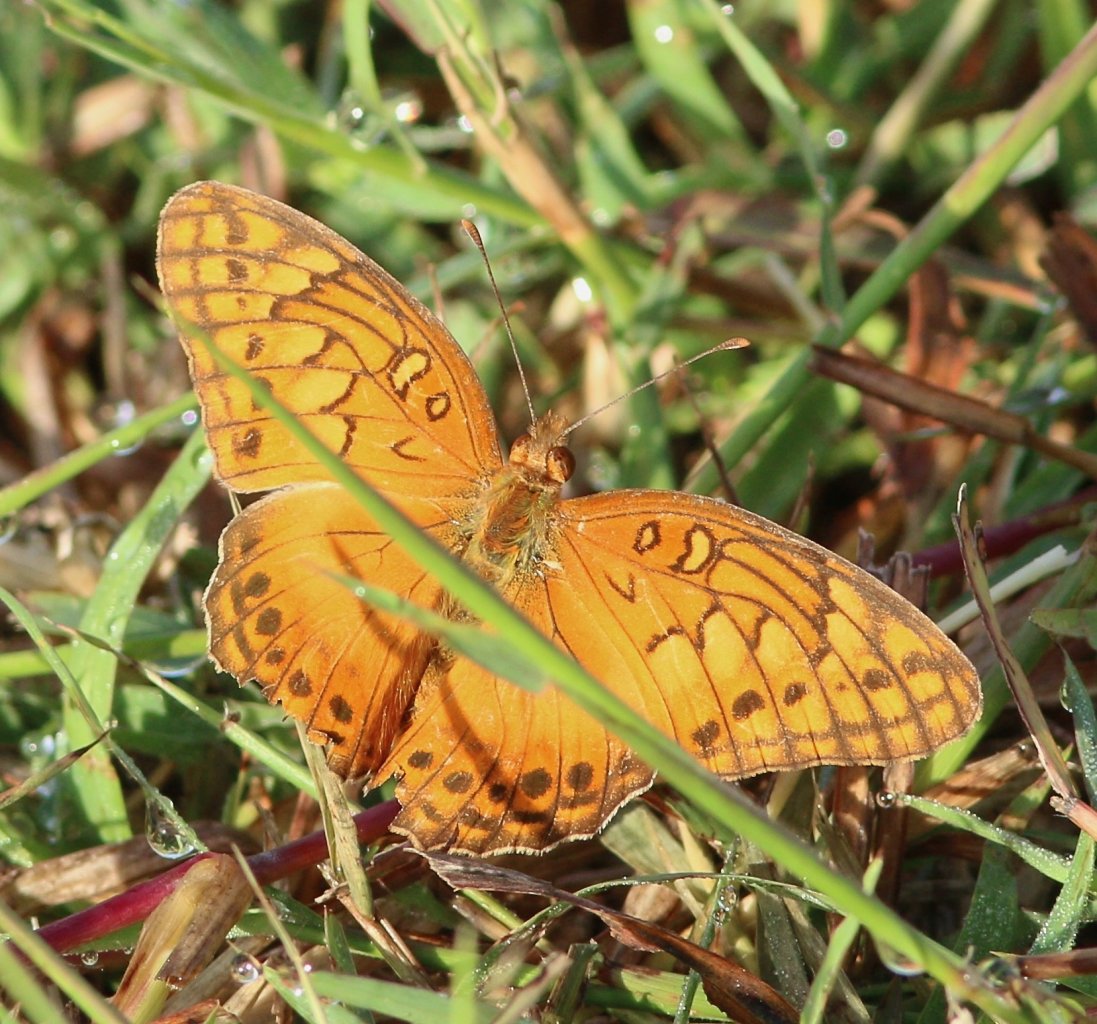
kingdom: Animalia
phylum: Arthropoda
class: Insecta
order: Lepidoptera
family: Nymphalidae
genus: Euptoieta
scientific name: Euptoieta hegesia
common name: Mexican Fritillary
